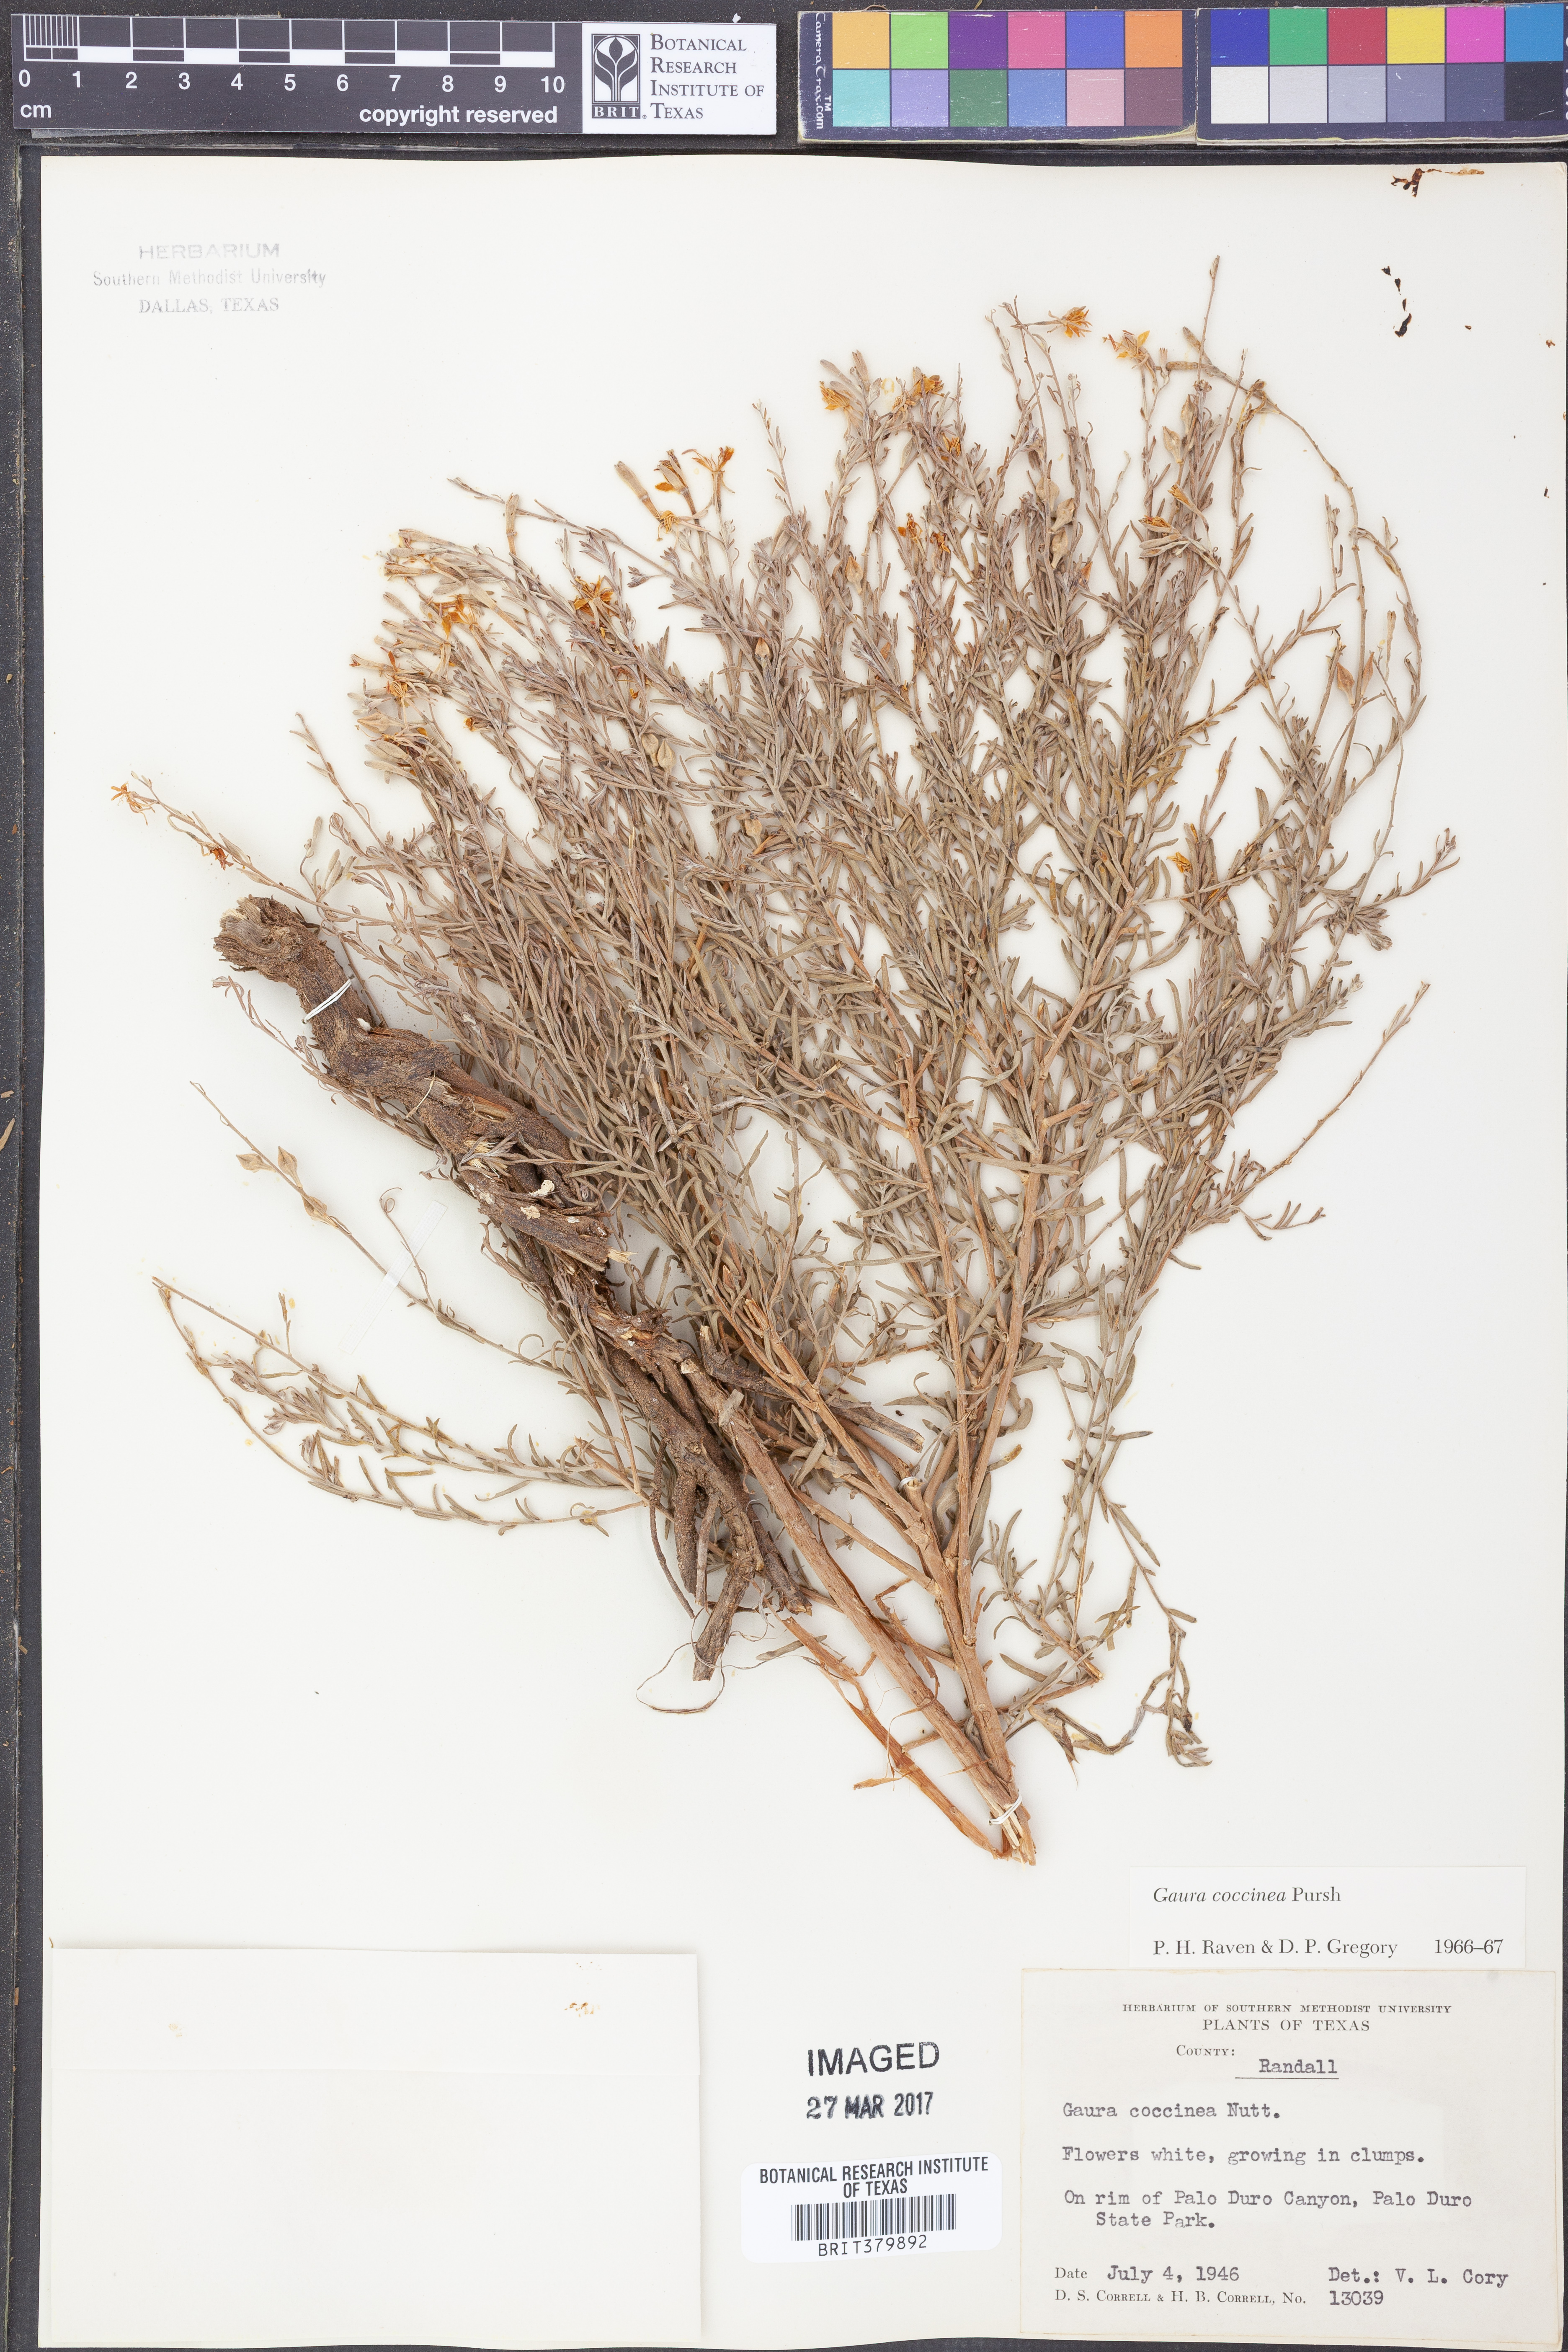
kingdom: Plantae
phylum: Tracheophyta
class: Magnoliopsida
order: Myrtales
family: Onagraceae
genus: Oenothera
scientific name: Oenothera suffrutescens
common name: Scarlet beeblossom
